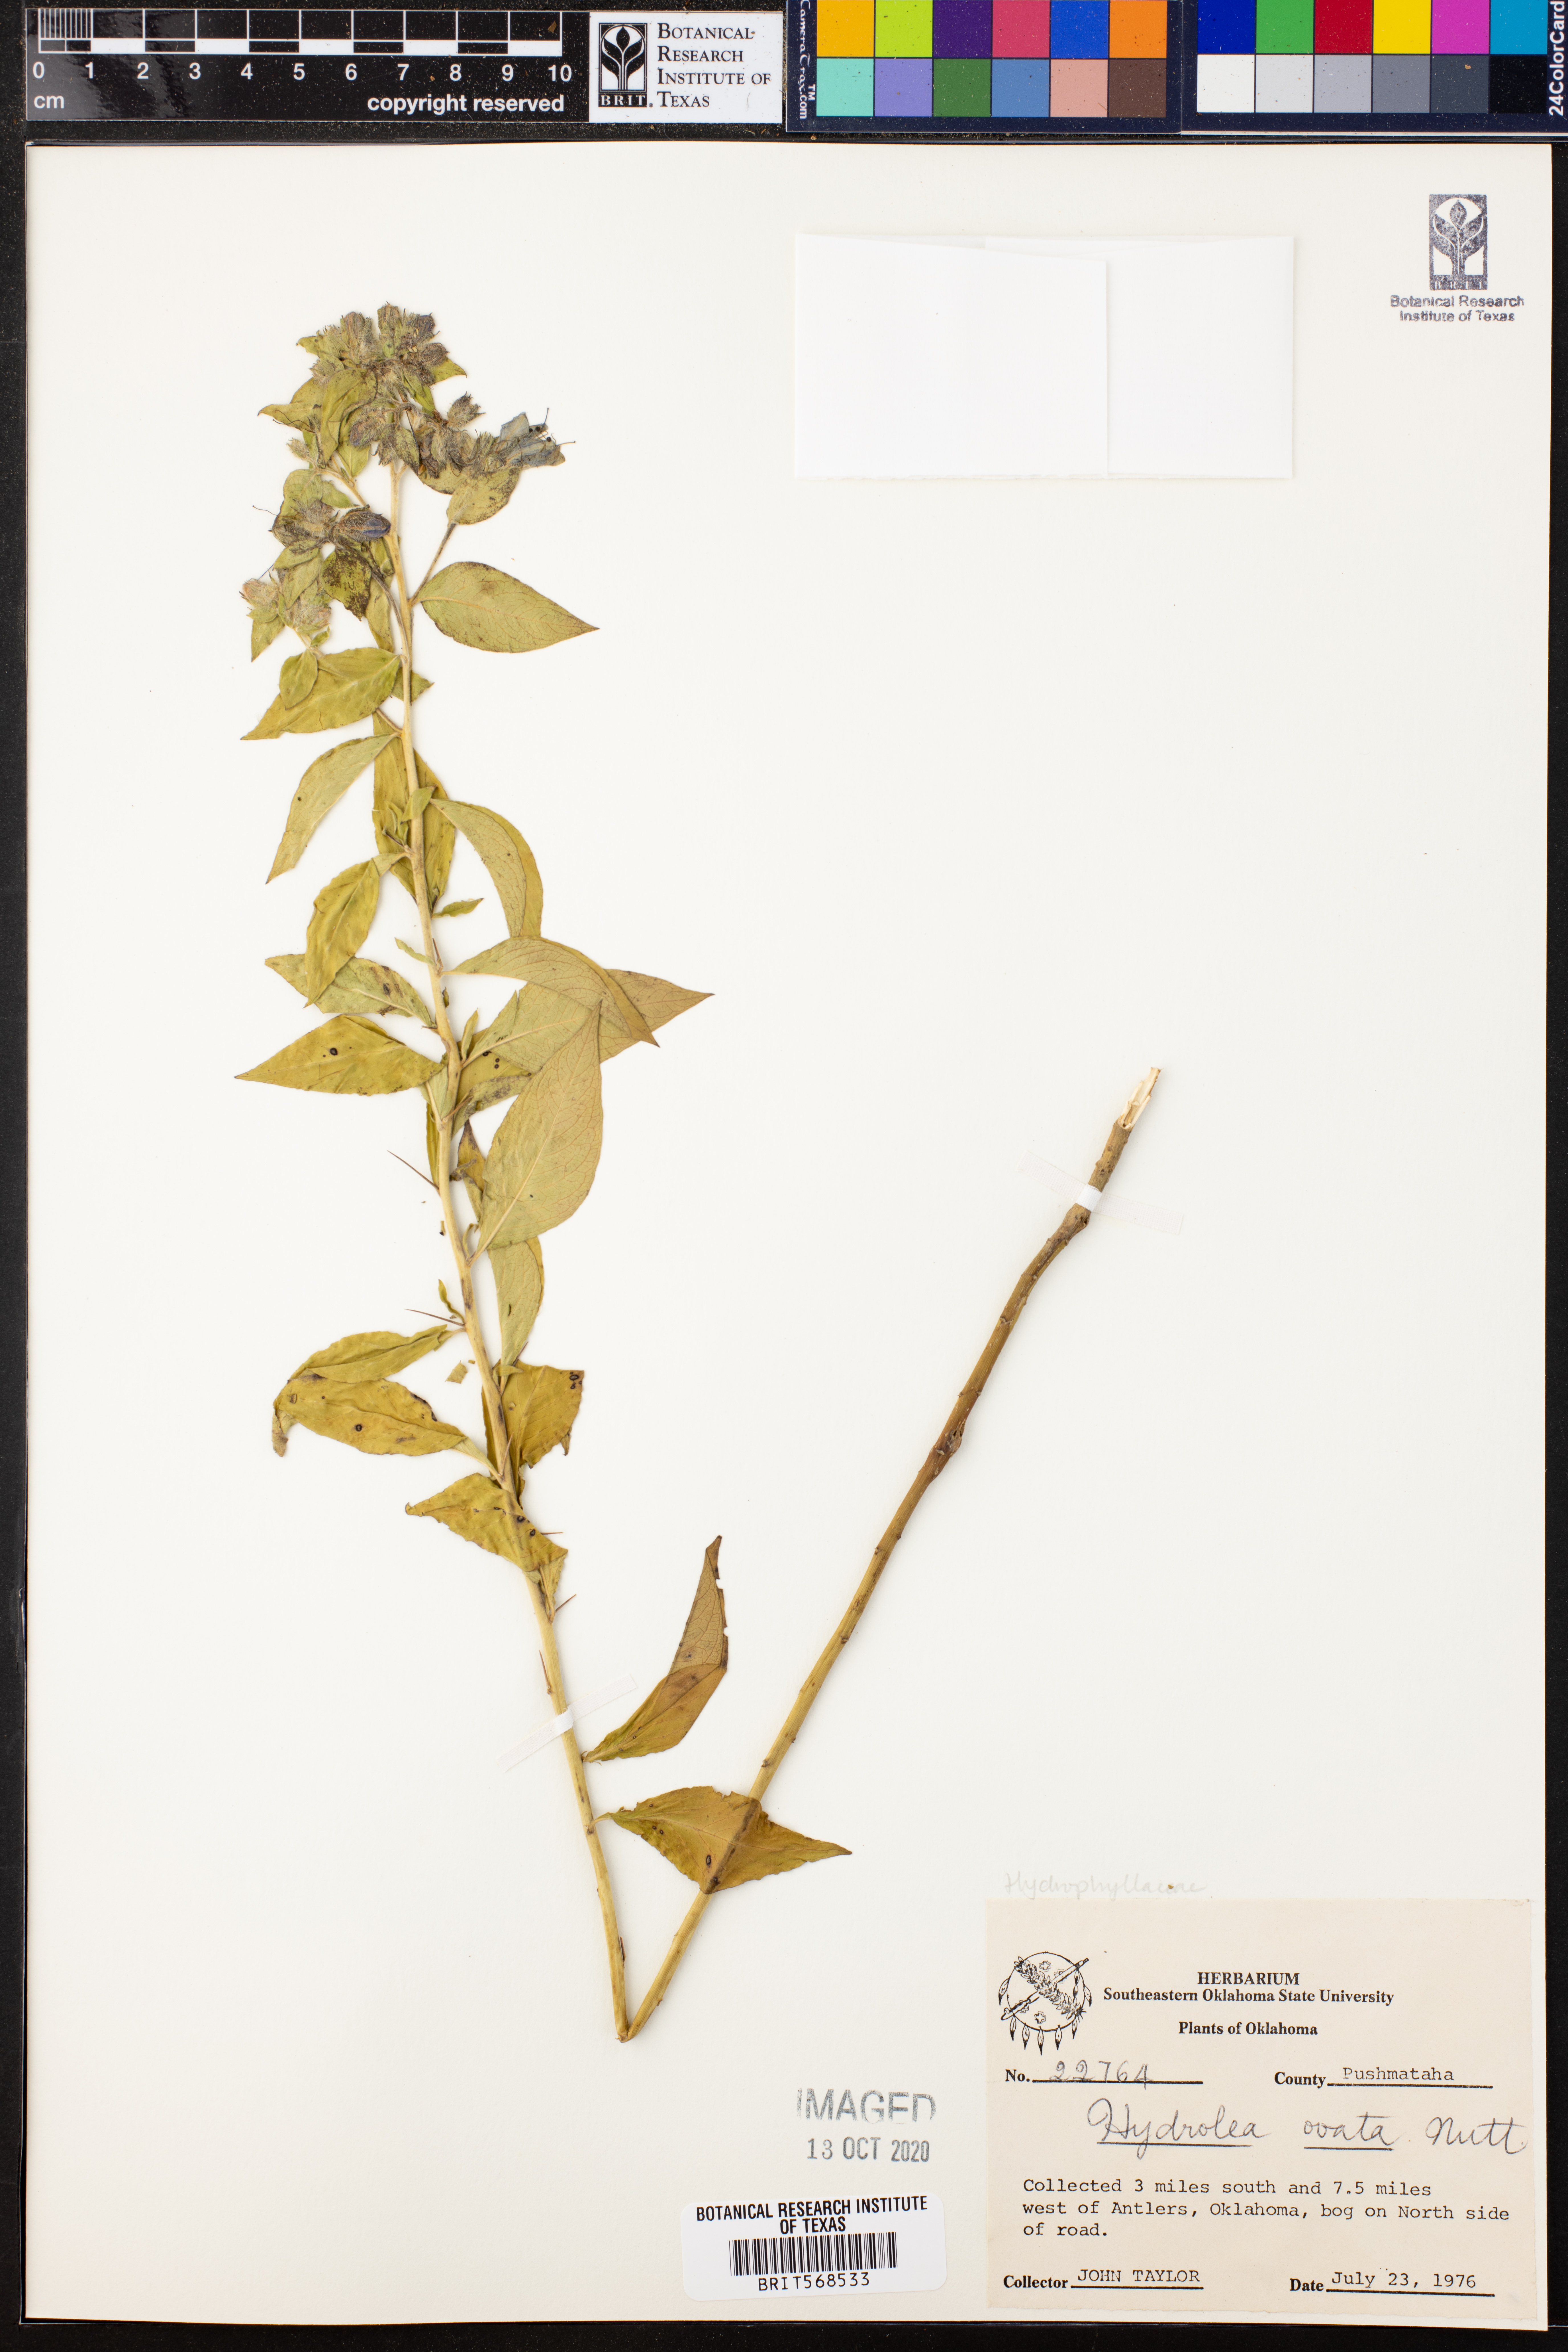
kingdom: Plantae
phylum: Tracheophyta
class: Magnoliopsida
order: Solanales
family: Hydroleaceae
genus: Hydrolea
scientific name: Hydrolea ovata
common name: Ovate false fiddleleaf
